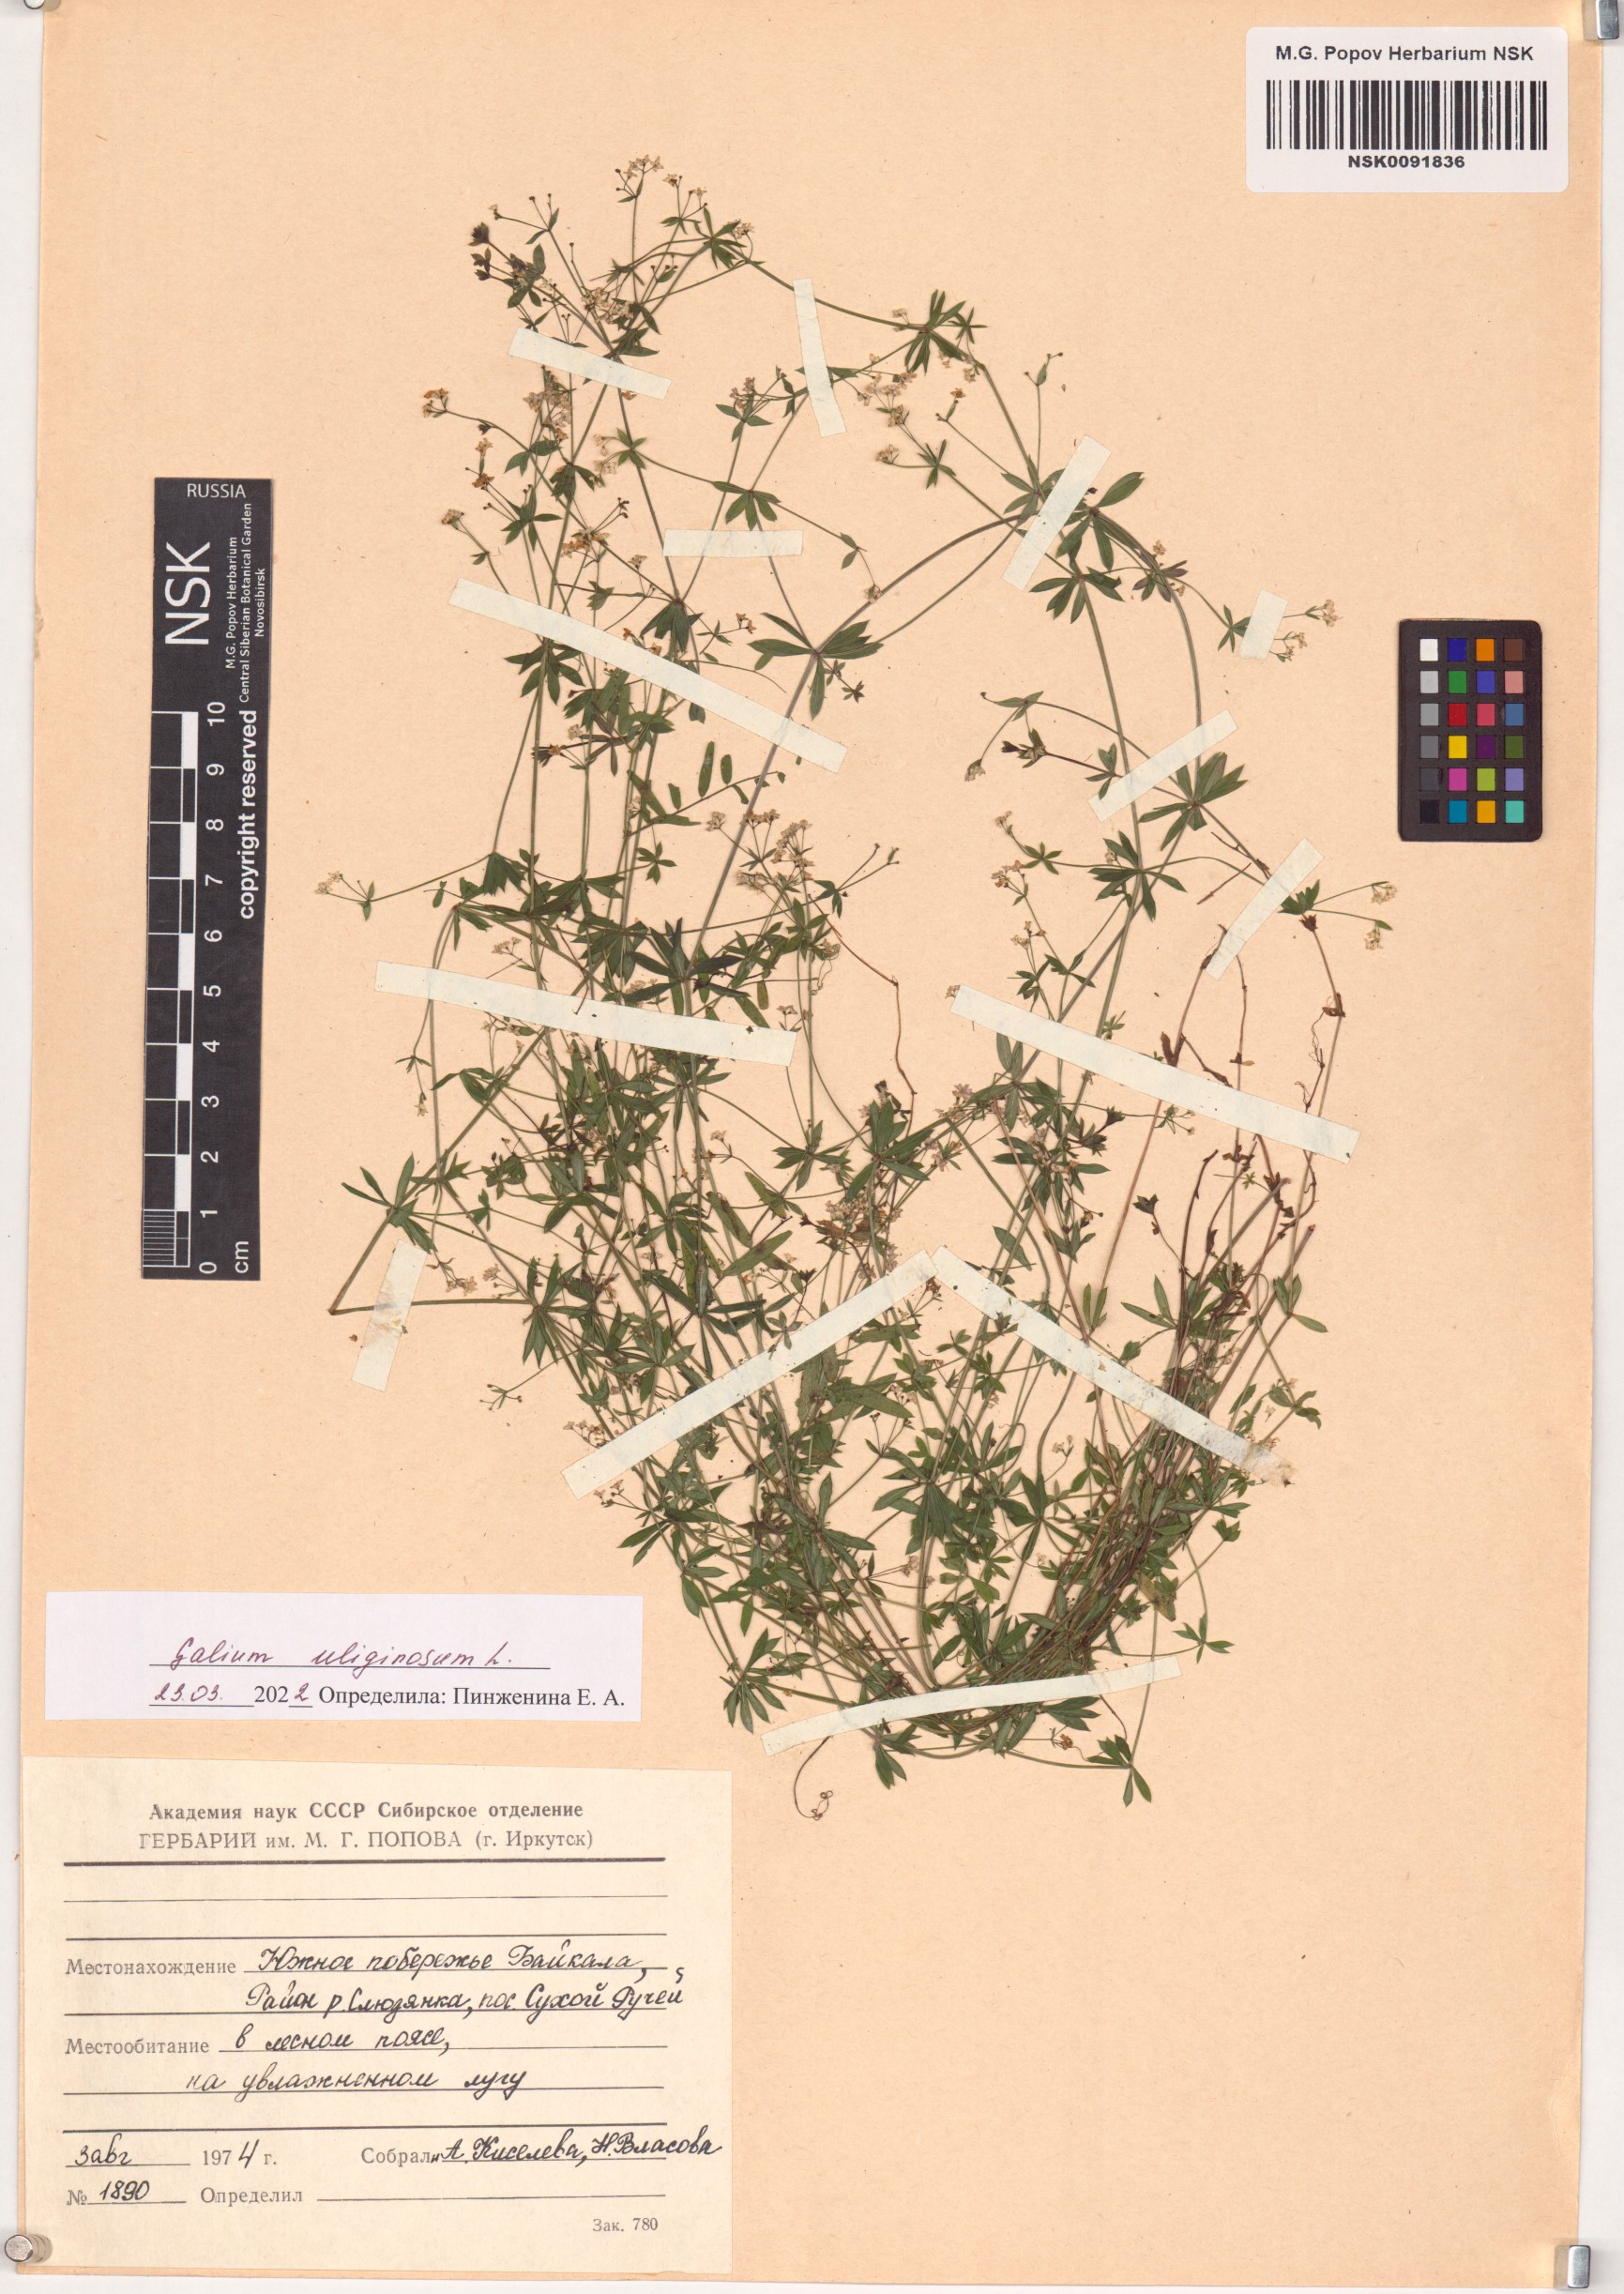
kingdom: Plantae
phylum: Tracheophyta
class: Magnoliopsida
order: Gentianales
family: Rubiaceae
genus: Galium
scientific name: Galium uliginosum
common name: Fen bedstraw
